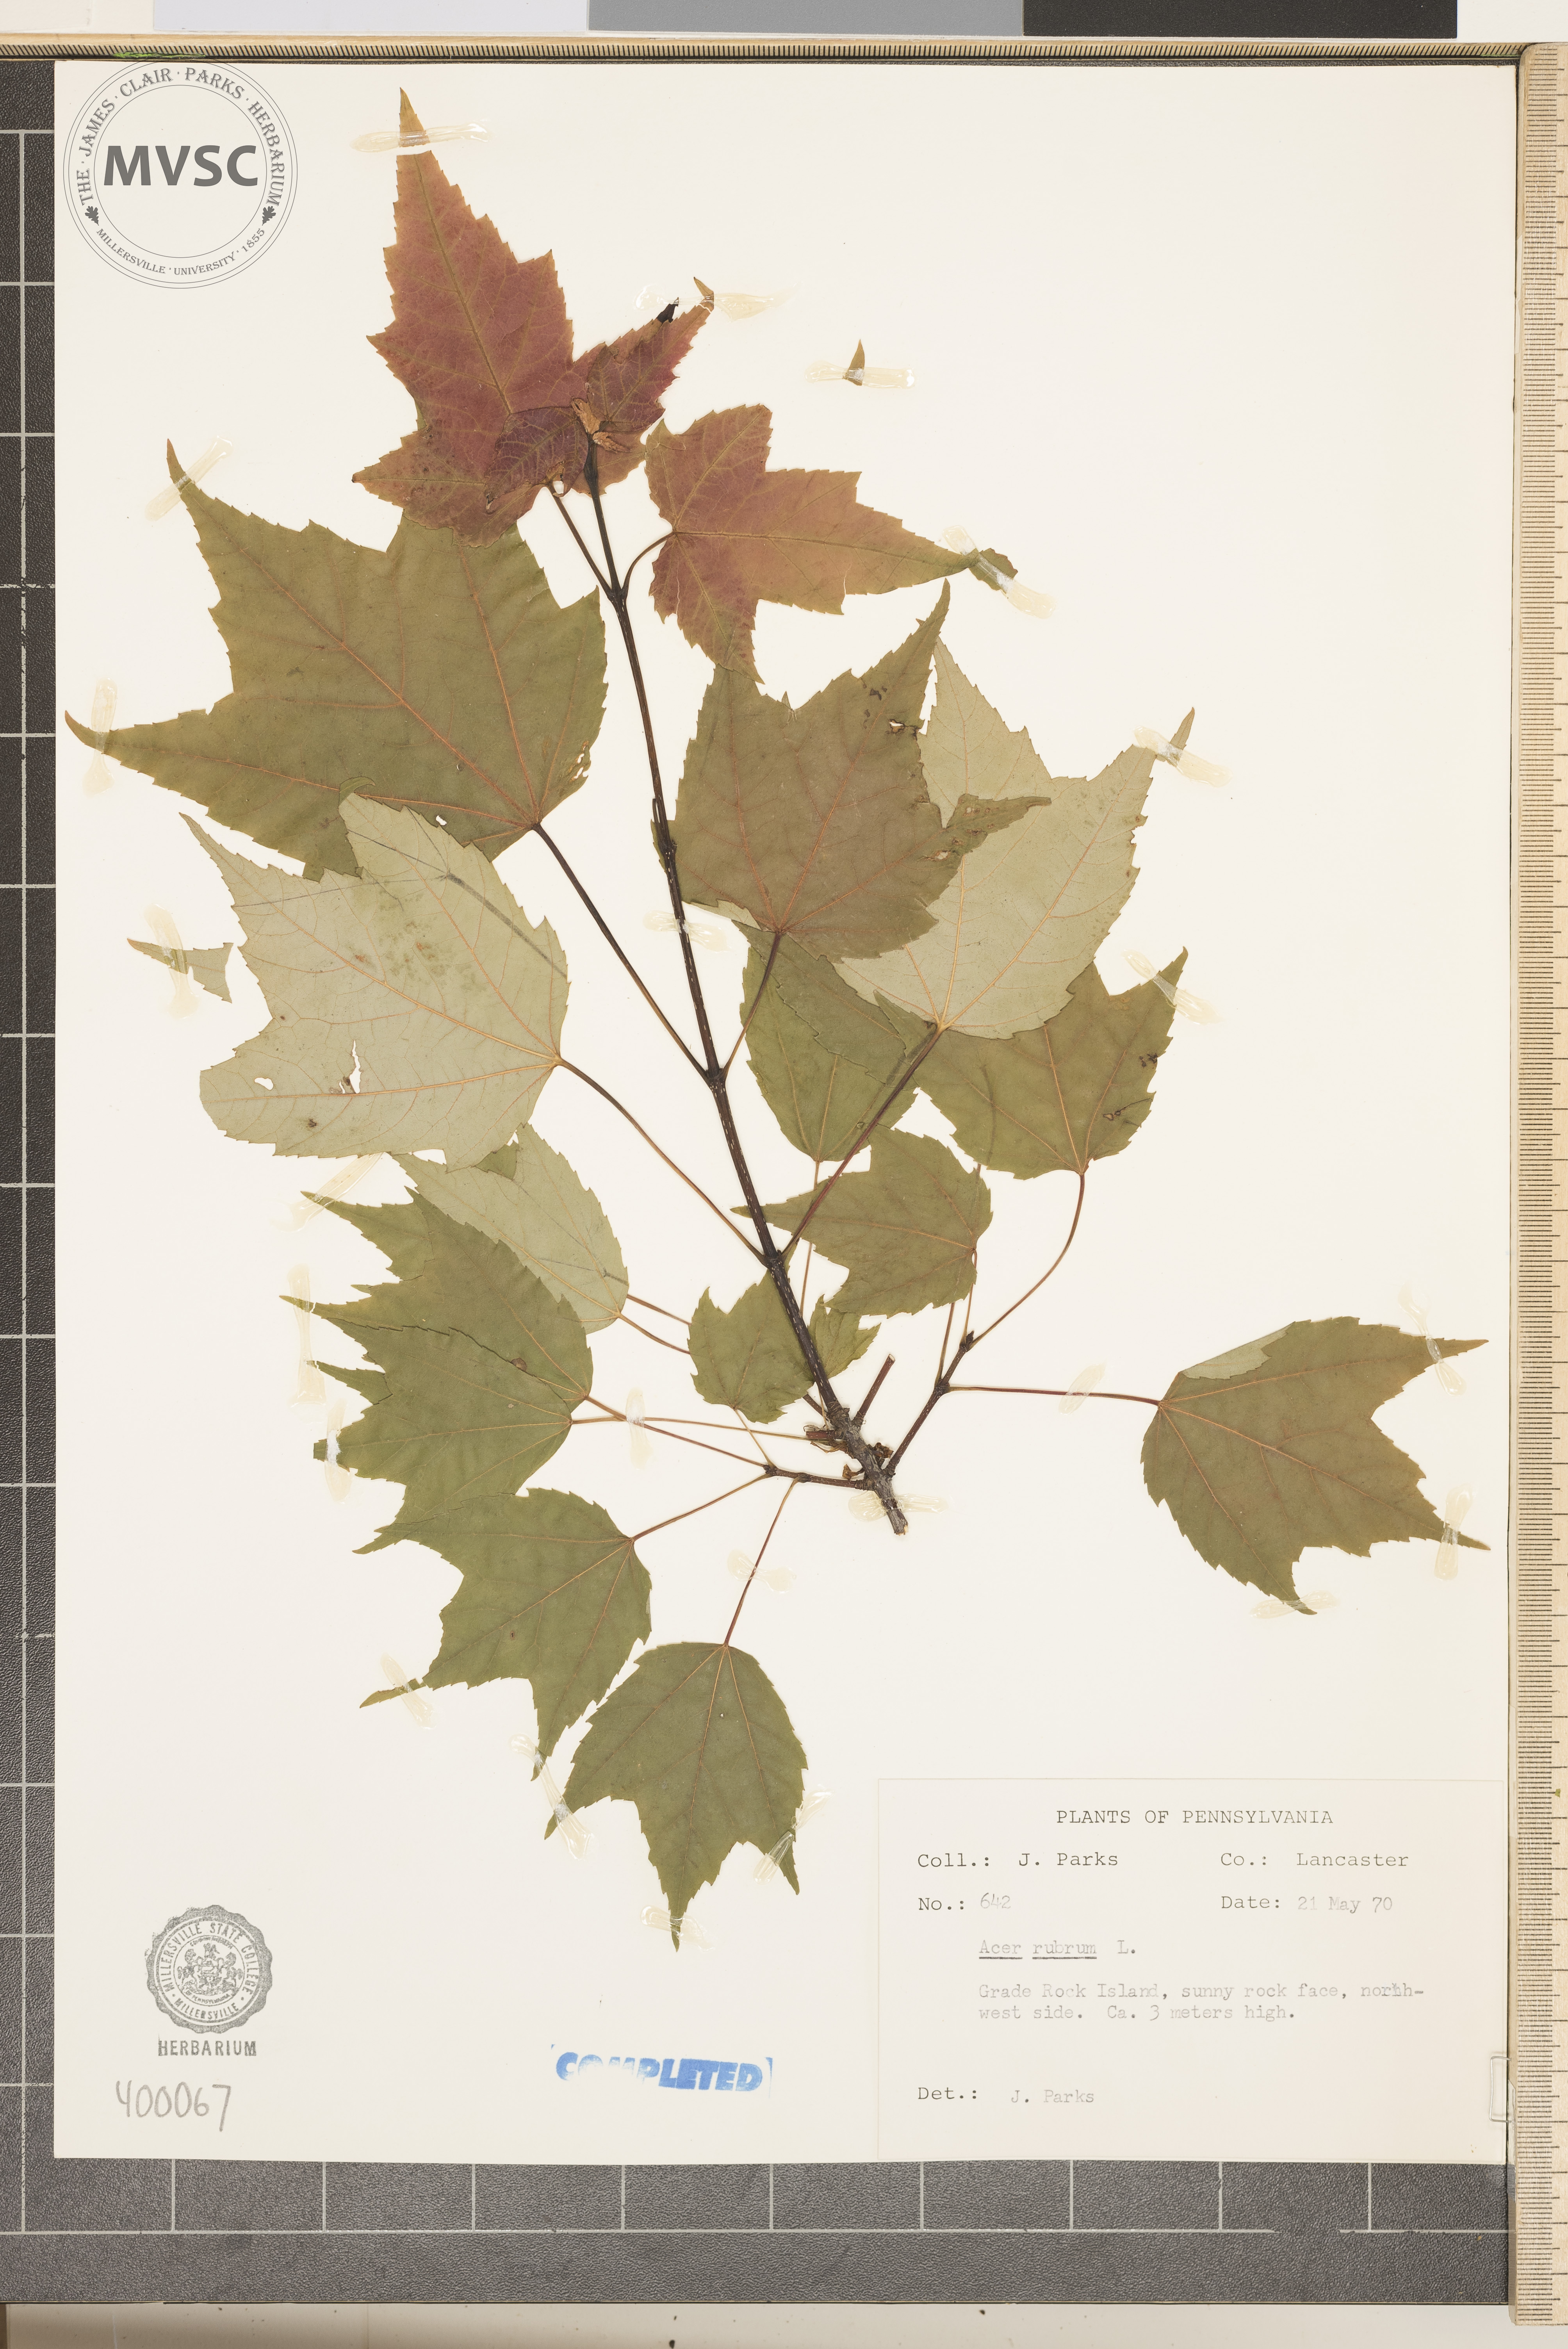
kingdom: Plantae
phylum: Tracheophyta
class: Magnoliopsida
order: Sapindales
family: Sapindaceae
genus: Acer
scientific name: Acer rubrum
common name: red maple
